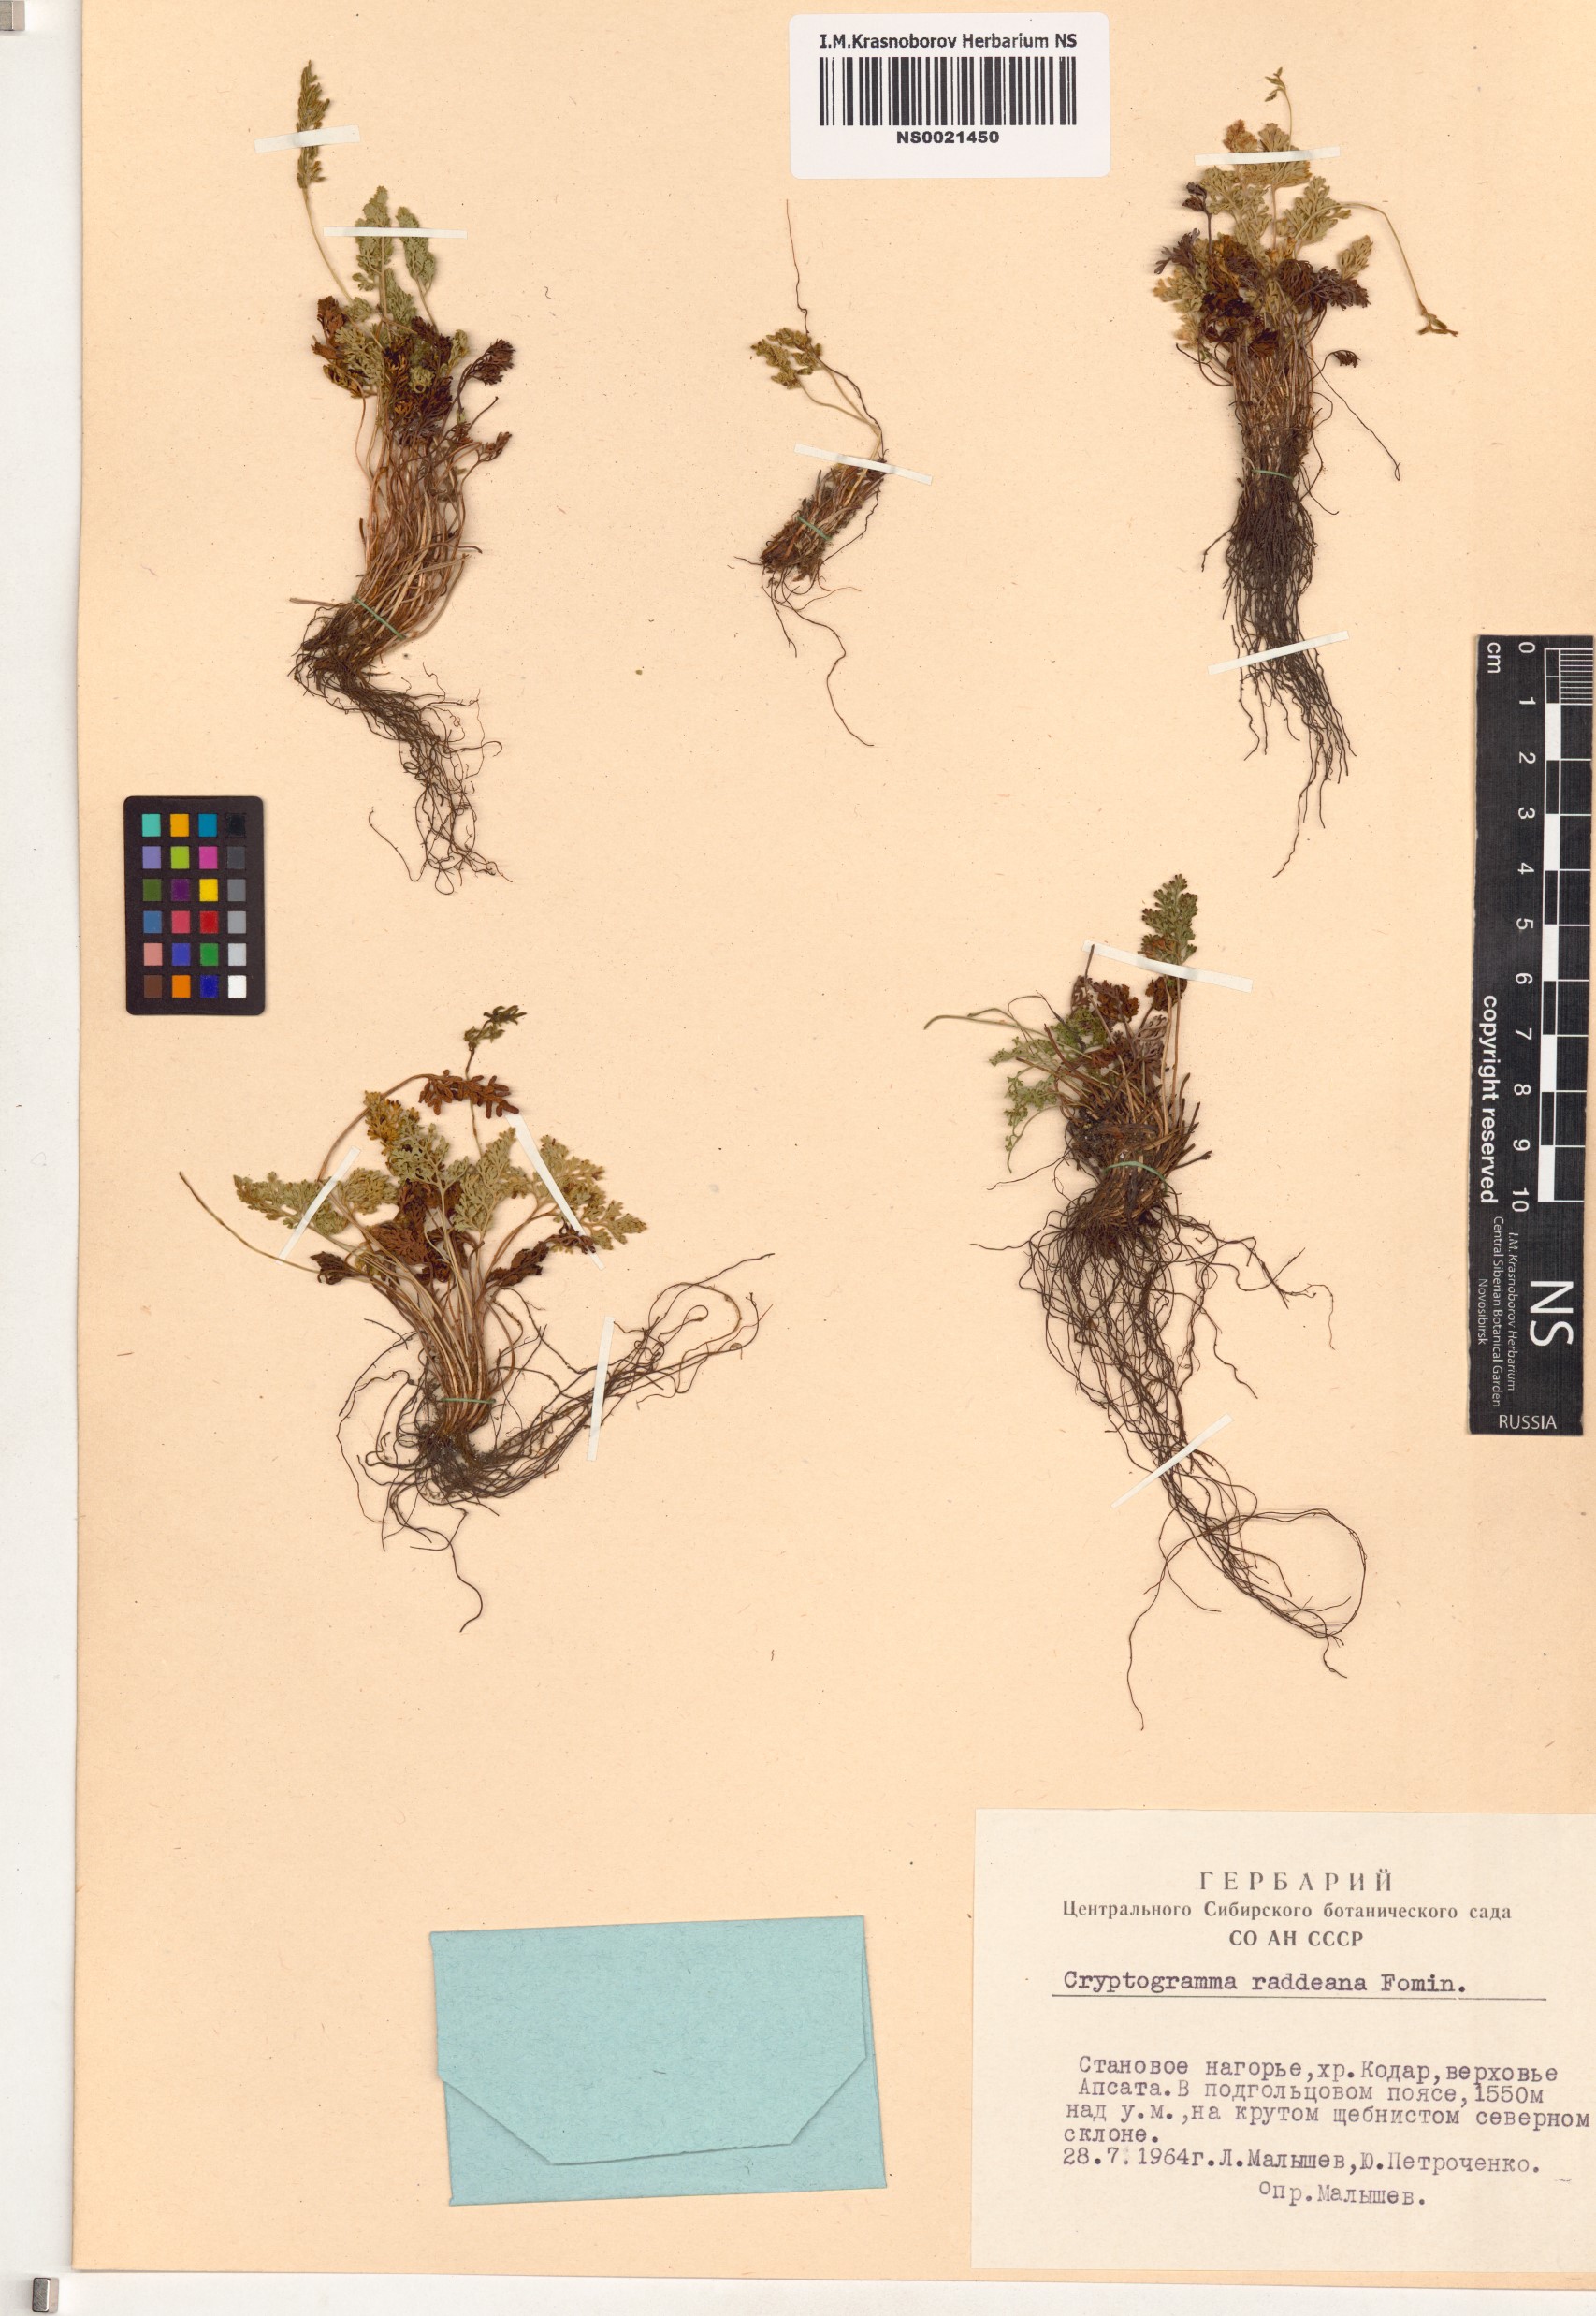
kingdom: Plantae
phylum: Tracheophyta
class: Polypodiopsida
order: Polypodiales
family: Pteridaceae
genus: Cryptogramma
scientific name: Cryptogramma brunoniana
